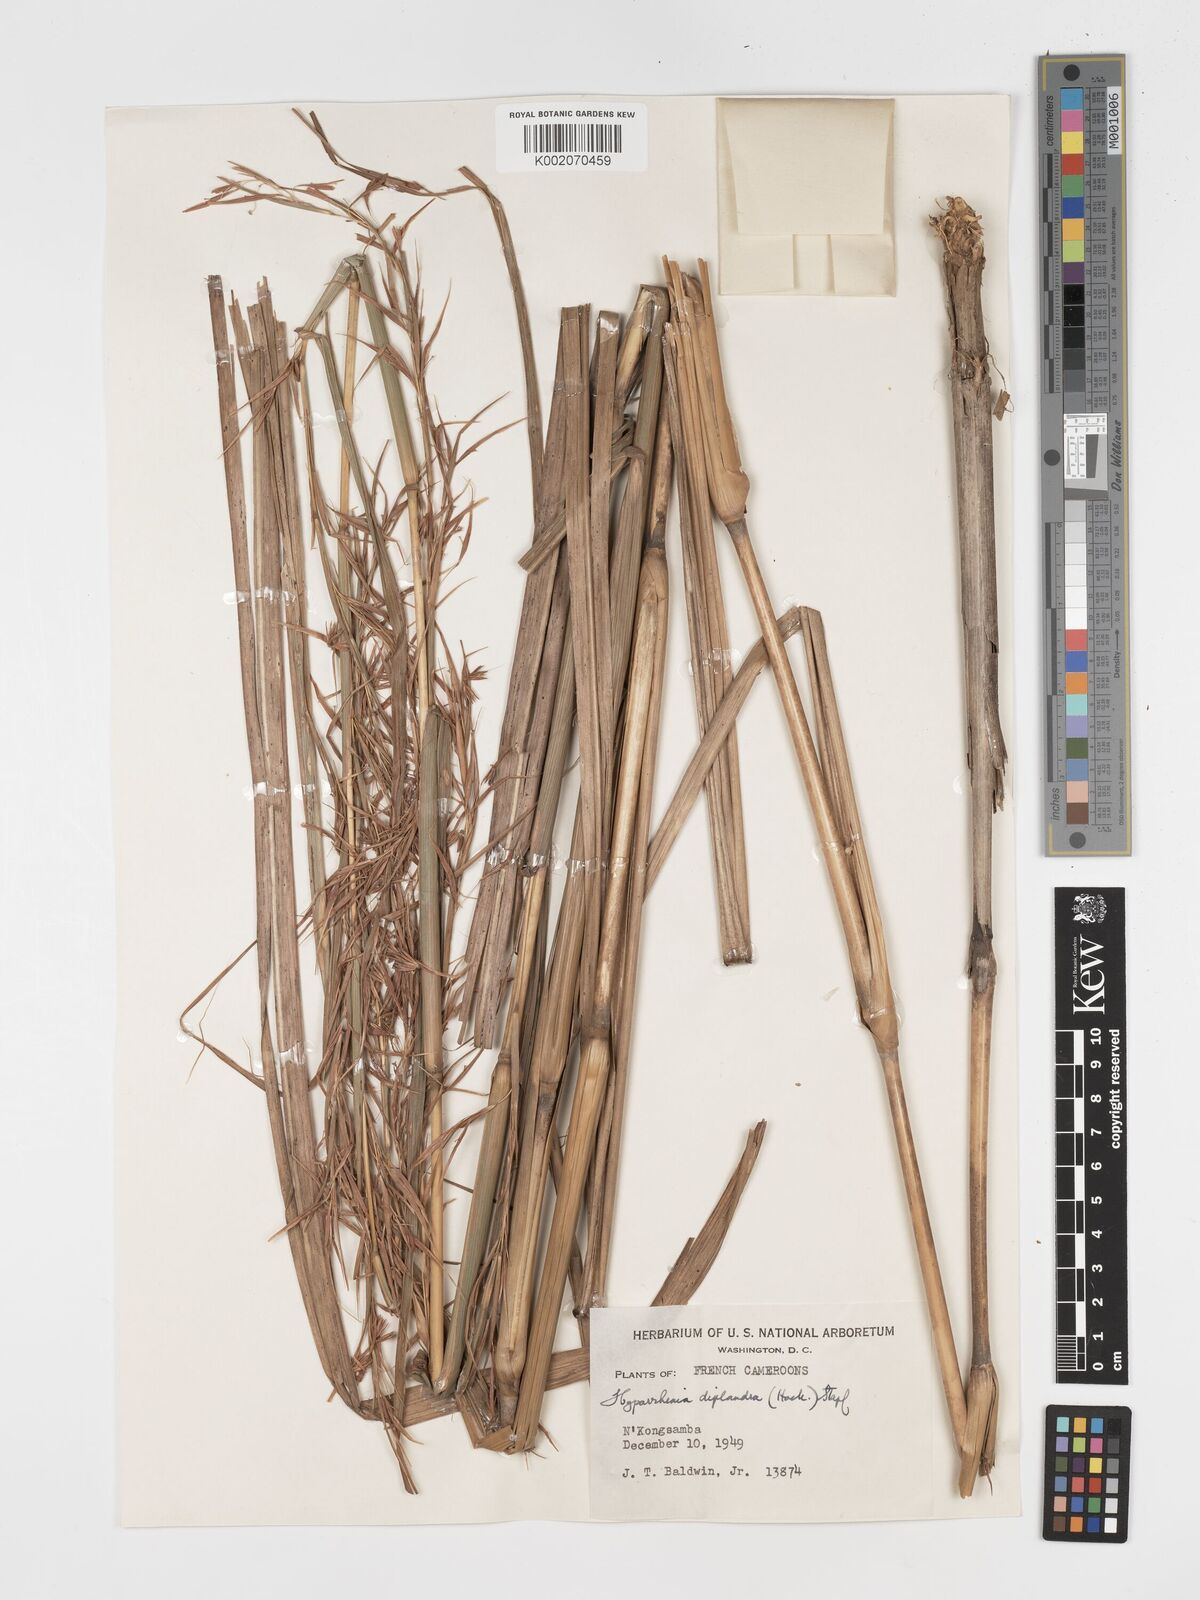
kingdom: Plantae
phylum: Tracheophyta
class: Liliopsida
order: Poales
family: Poaceae
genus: Hyparrhenia
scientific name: Hyparrhenia diplandra
